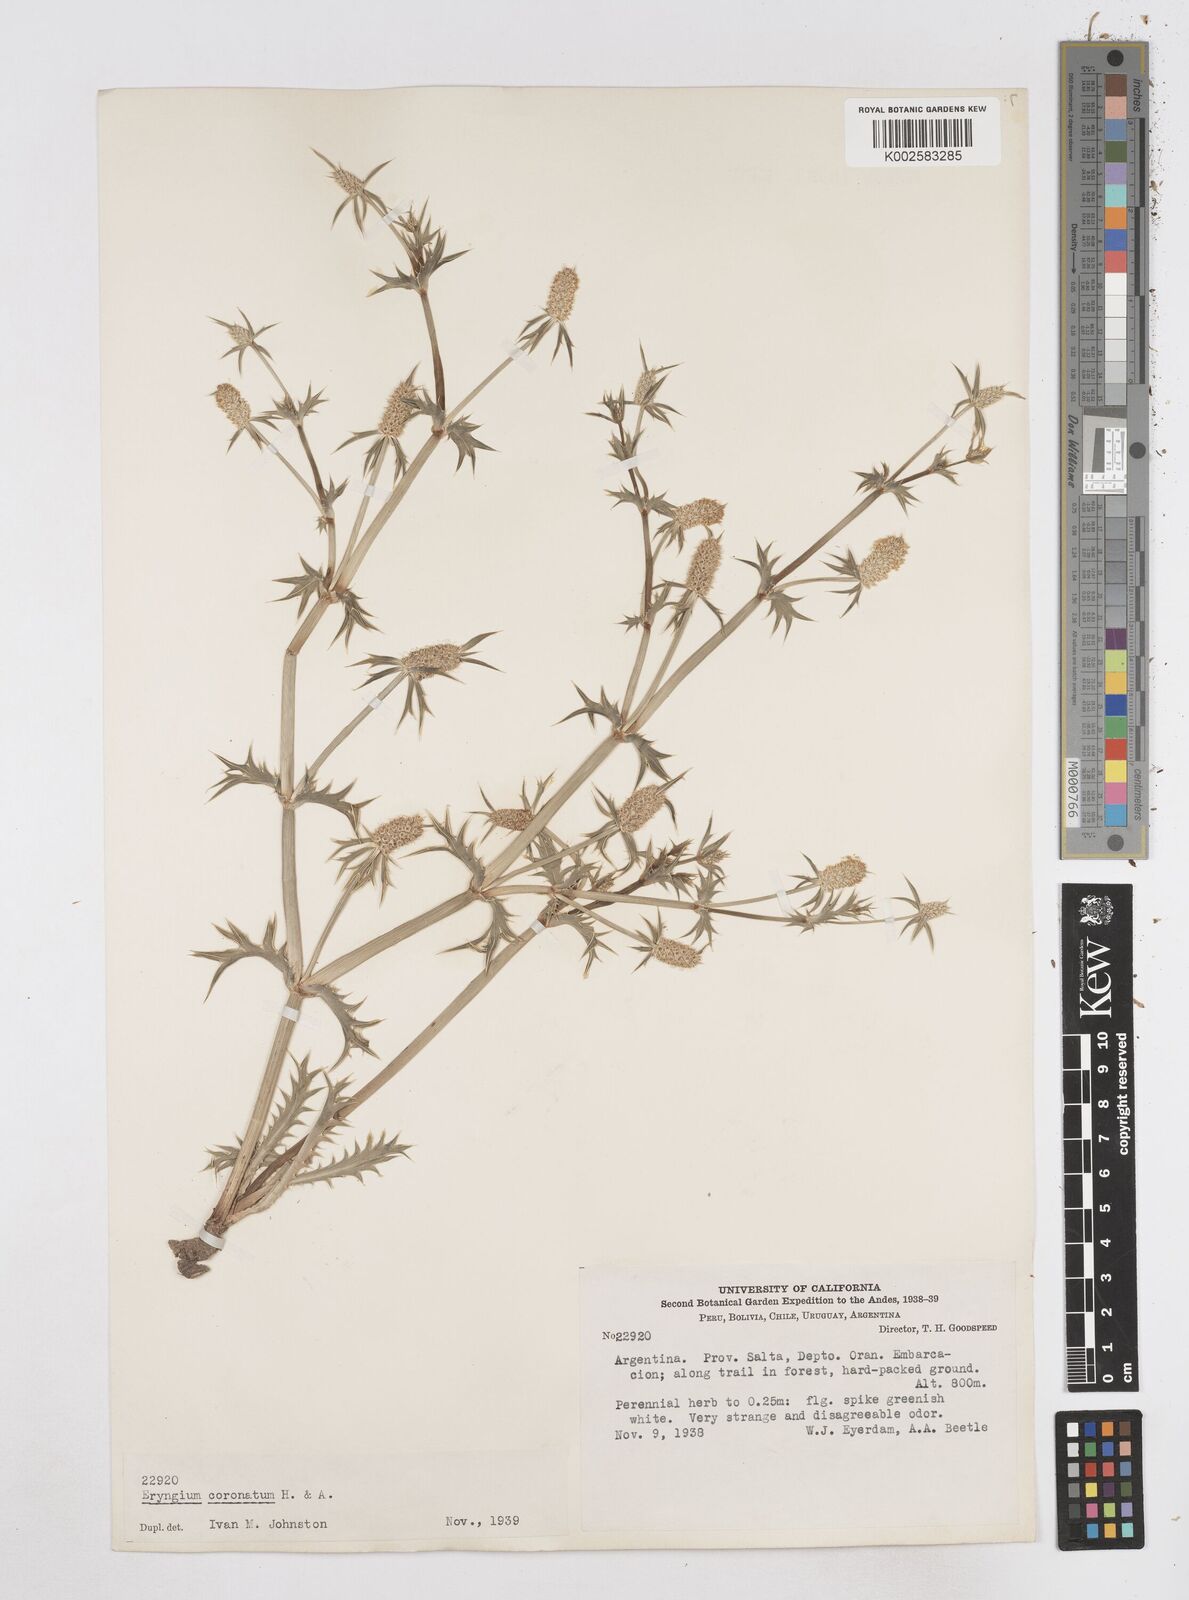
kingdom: Plantae
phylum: Tracheophyta
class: Magnoliopsida
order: Apiales
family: Apiaceae
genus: Eryngium
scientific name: Eryngium coronatum
